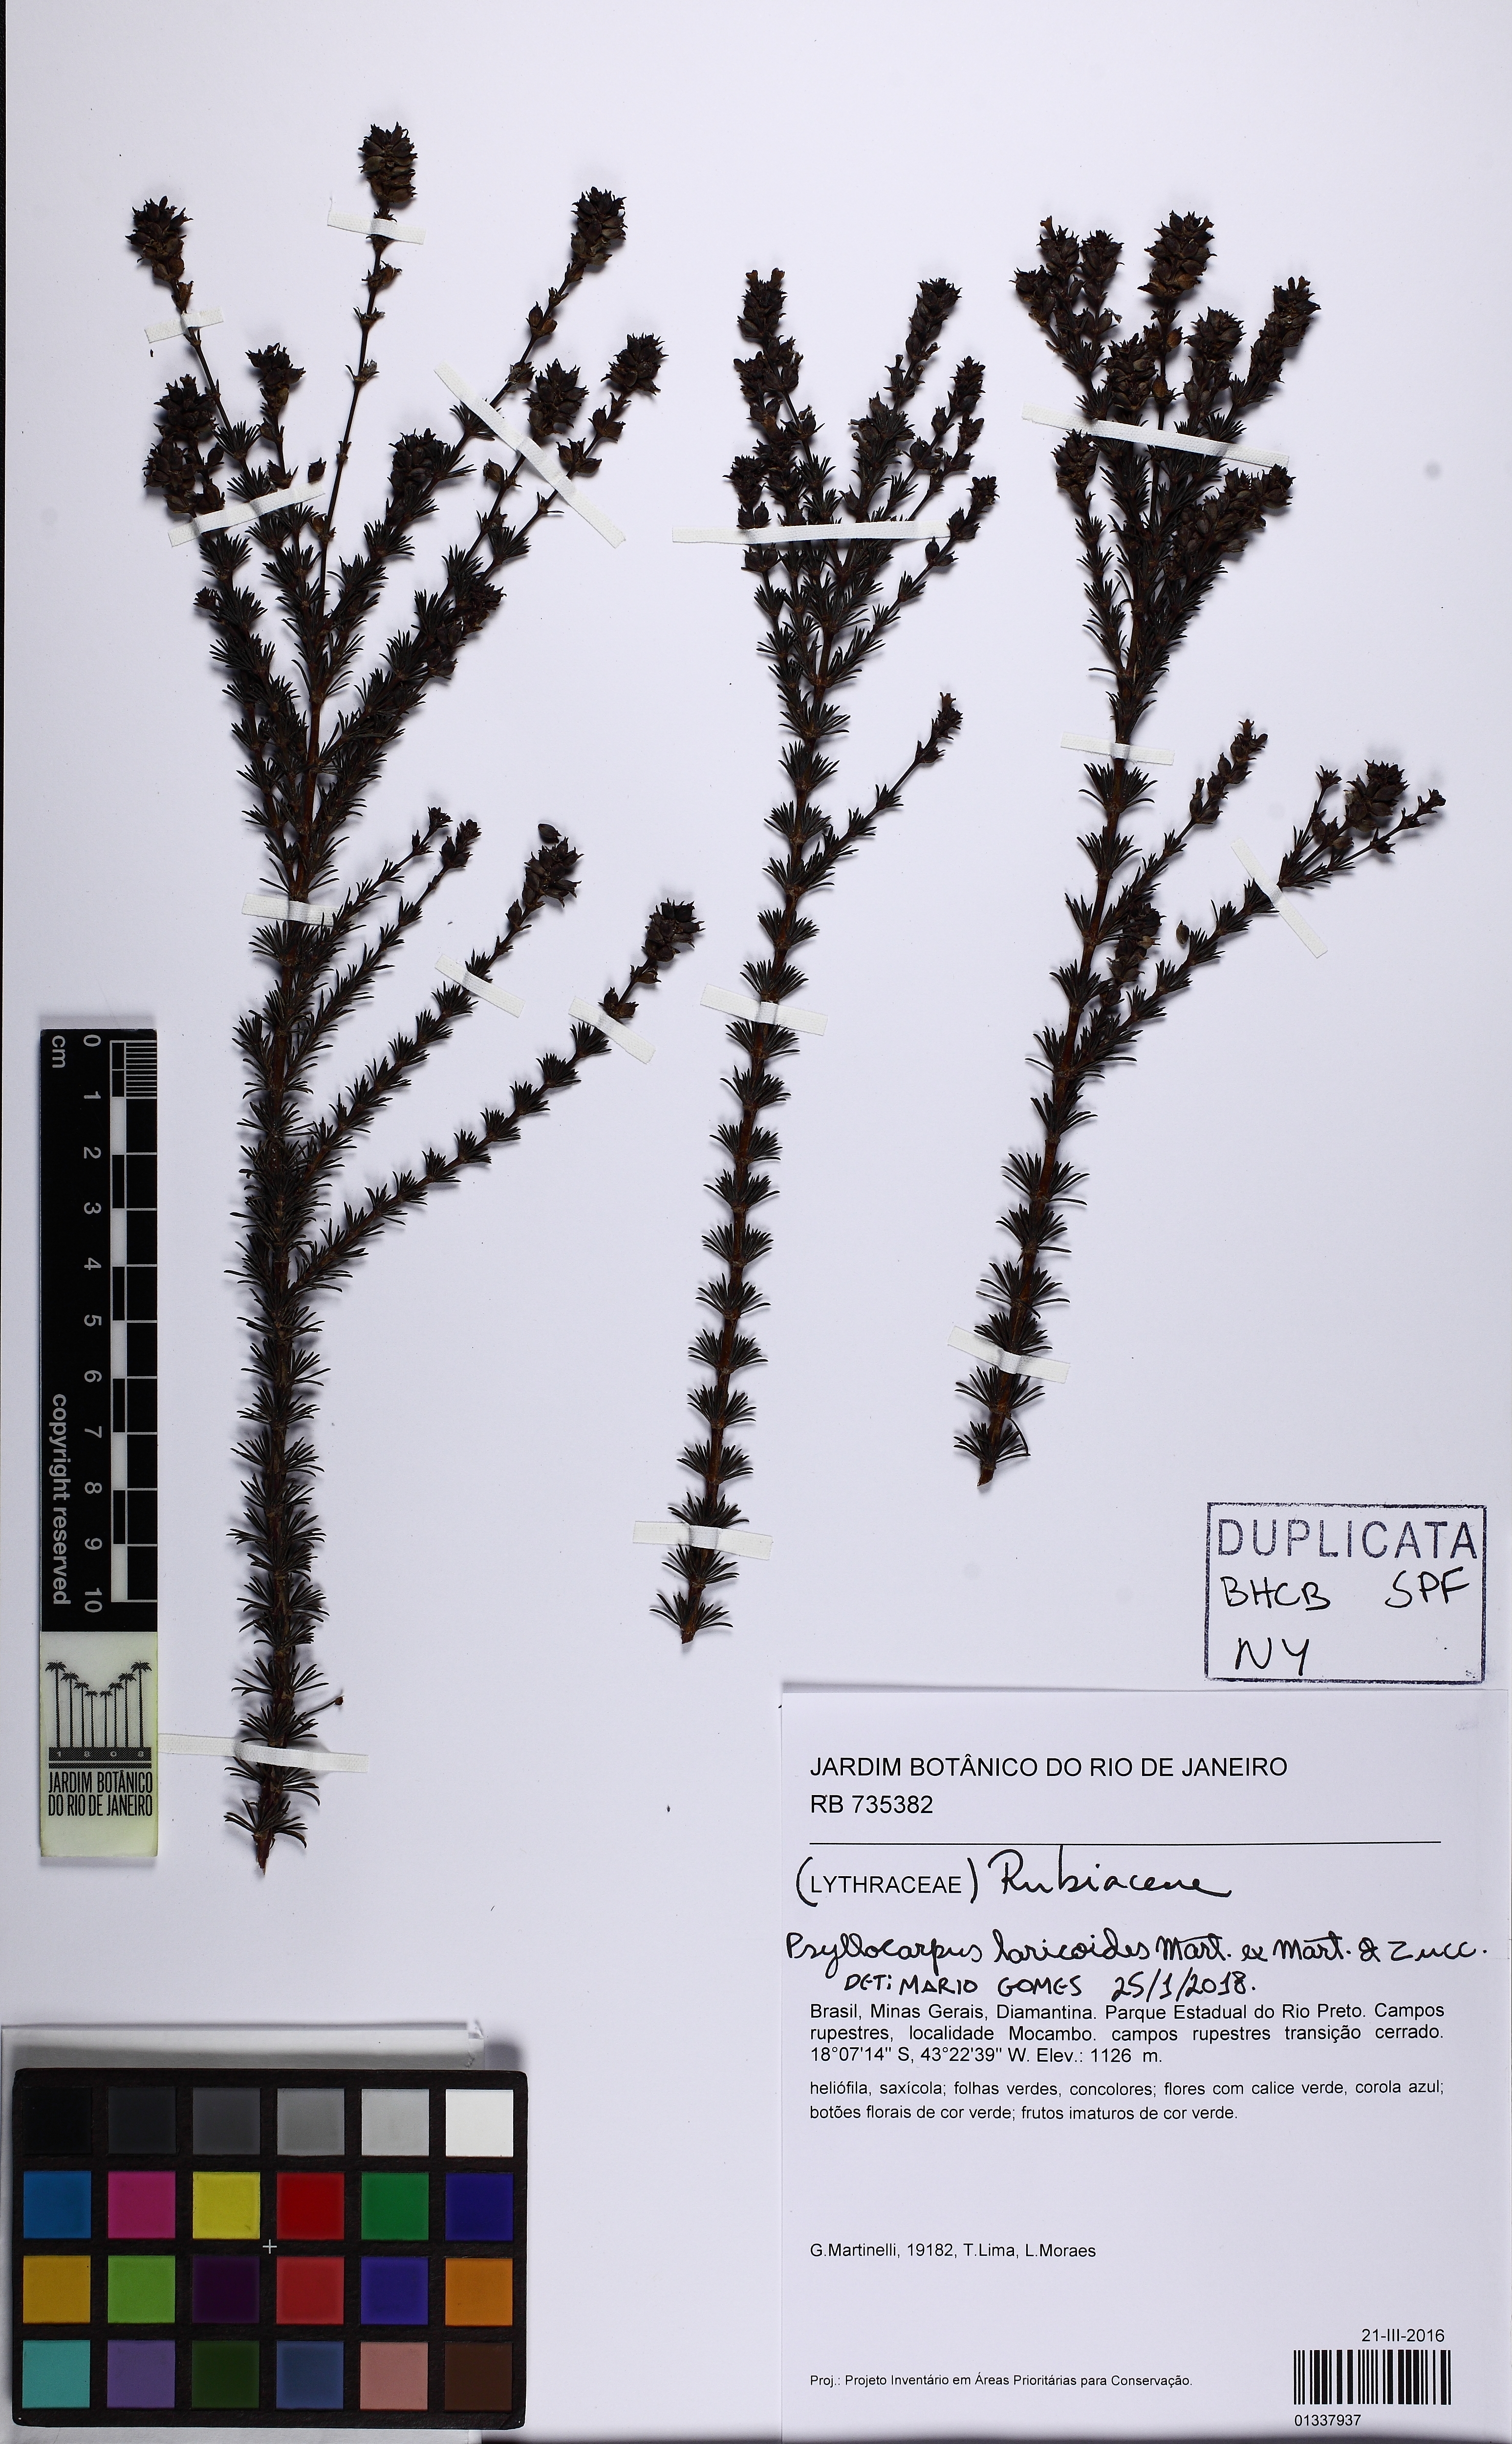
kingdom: Plantae
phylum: Tracheophyta
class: Magnoliopsida
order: Gentianales
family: Rubiaceae
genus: Psyllocarpus
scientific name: Psyllocarpus laricoides
